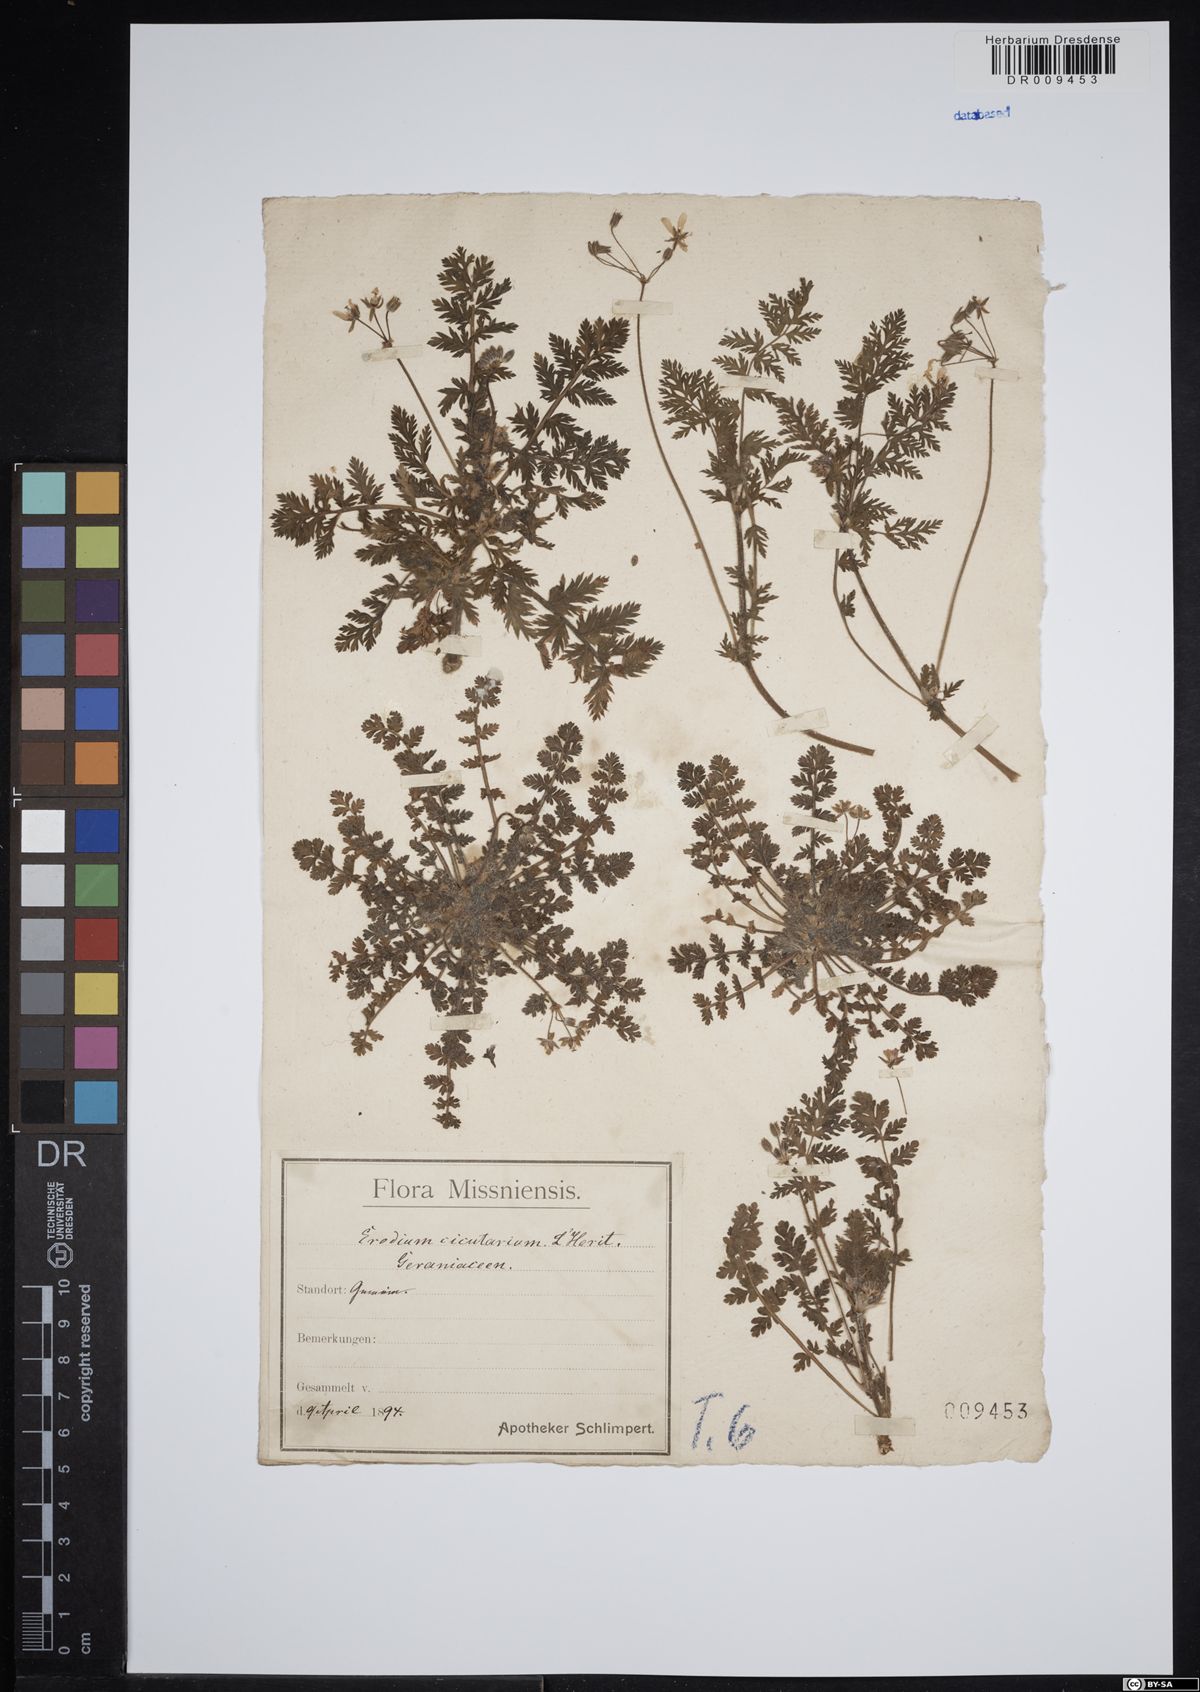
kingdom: Plantae
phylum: Tracheophyta
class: Magnoliopsida
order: Geraniales
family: Geraniaceae
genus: Erodium
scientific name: Erodium cicutarium
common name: Common stork's-bill
